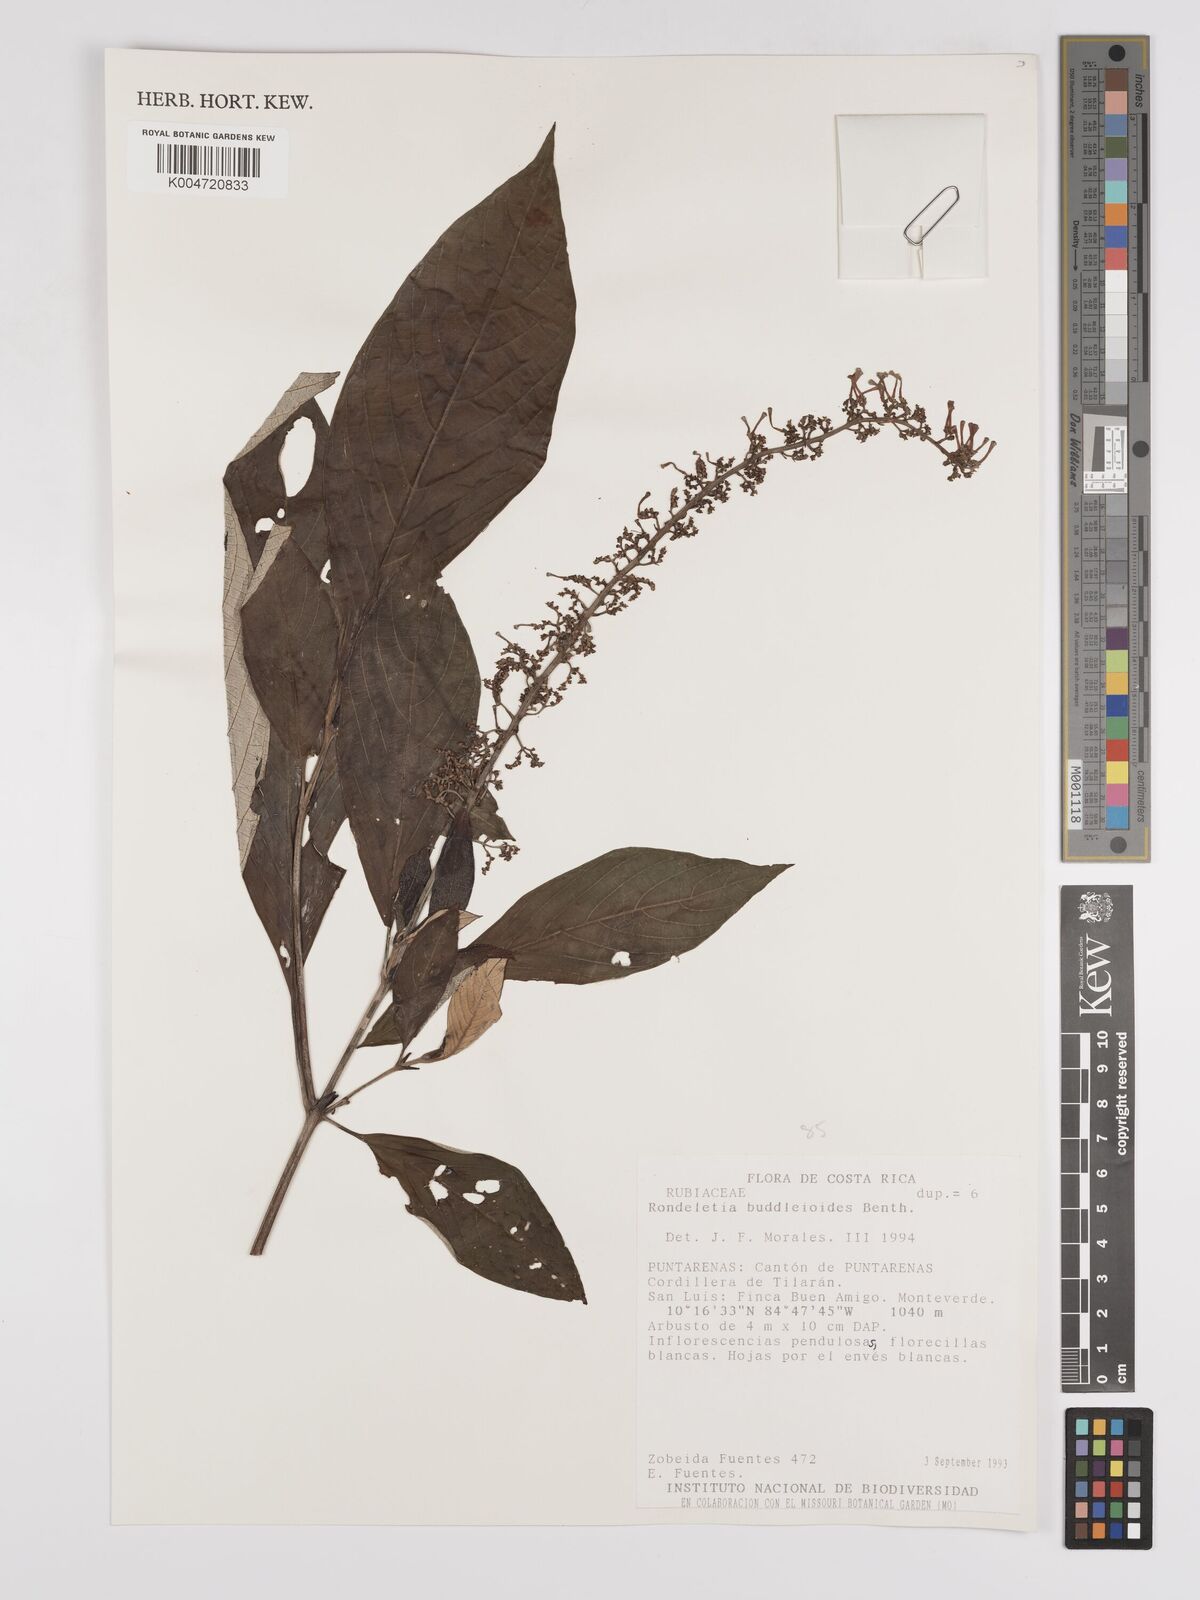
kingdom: Plantae
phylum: Tracheophyta
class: Magnoliopsida
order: Gentianales
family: Rubiaceae
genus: Arachnothryx
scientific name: Arachnothryx buddleioides
